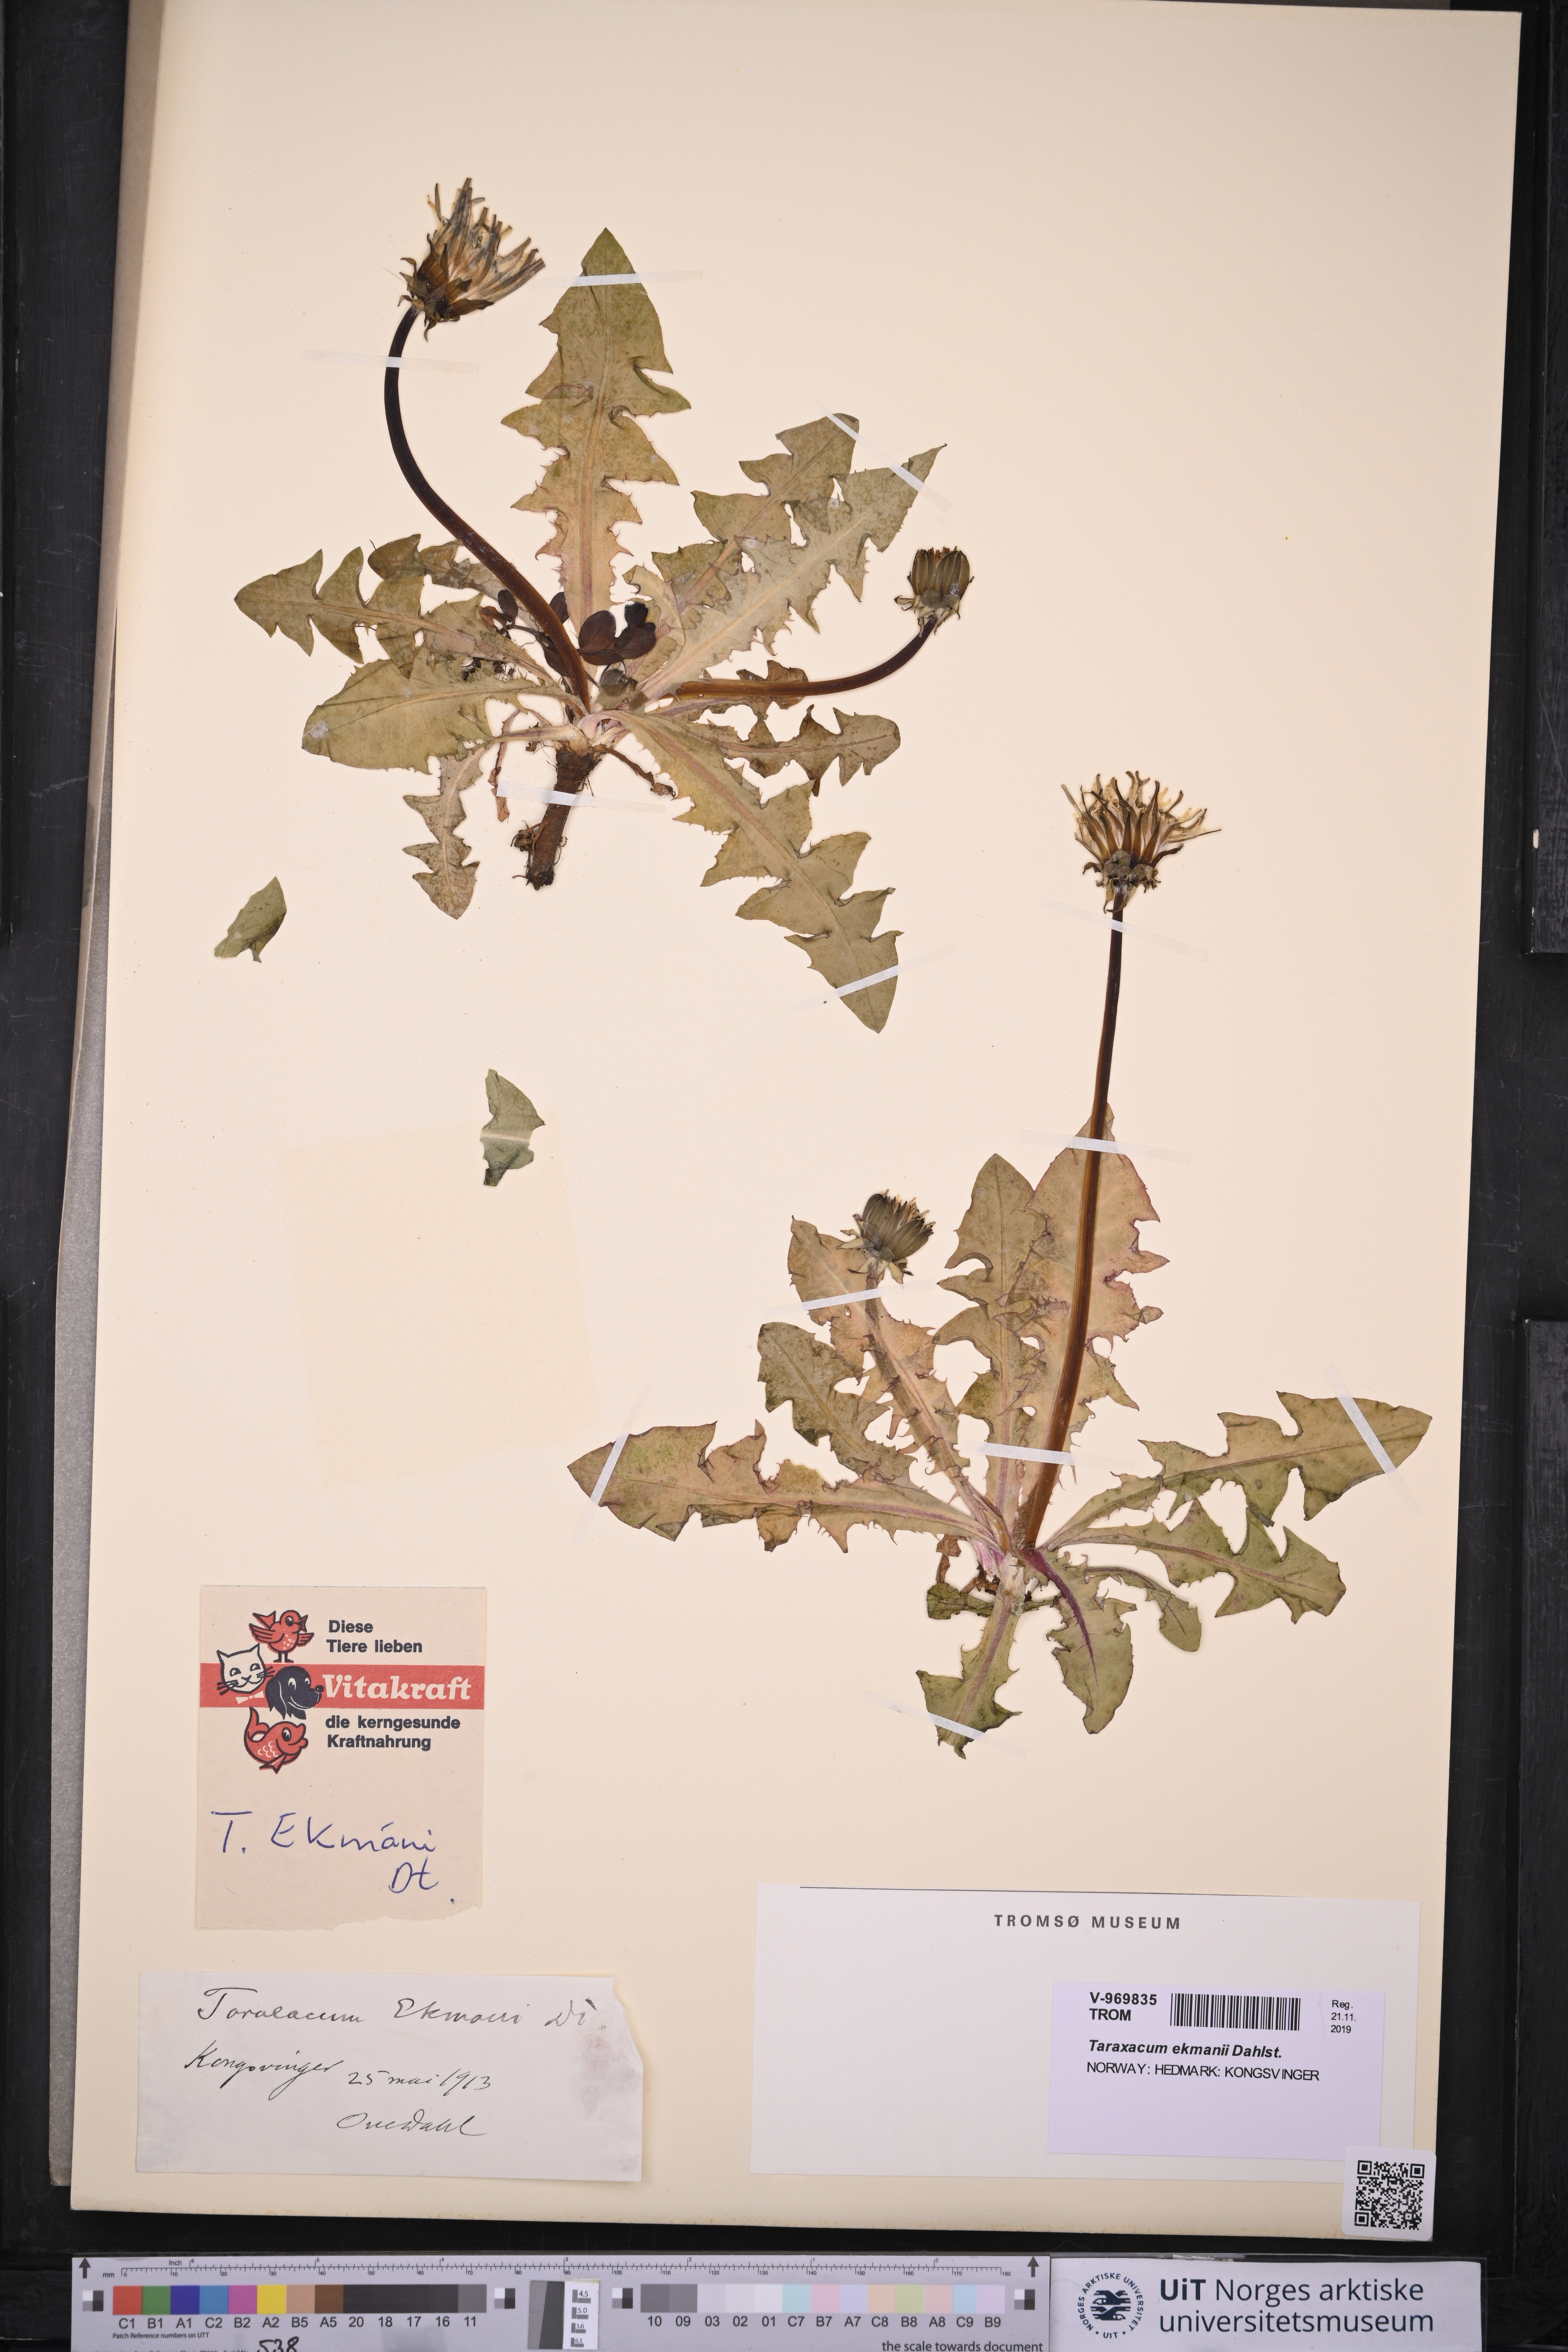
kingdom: Plantae
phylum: Tracheophyta
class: Magnoliopsida
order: Asterales
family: Asteraceae
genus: Taraxacum
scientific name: Taraxacum ekmanii
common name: Ekman's dandelion
